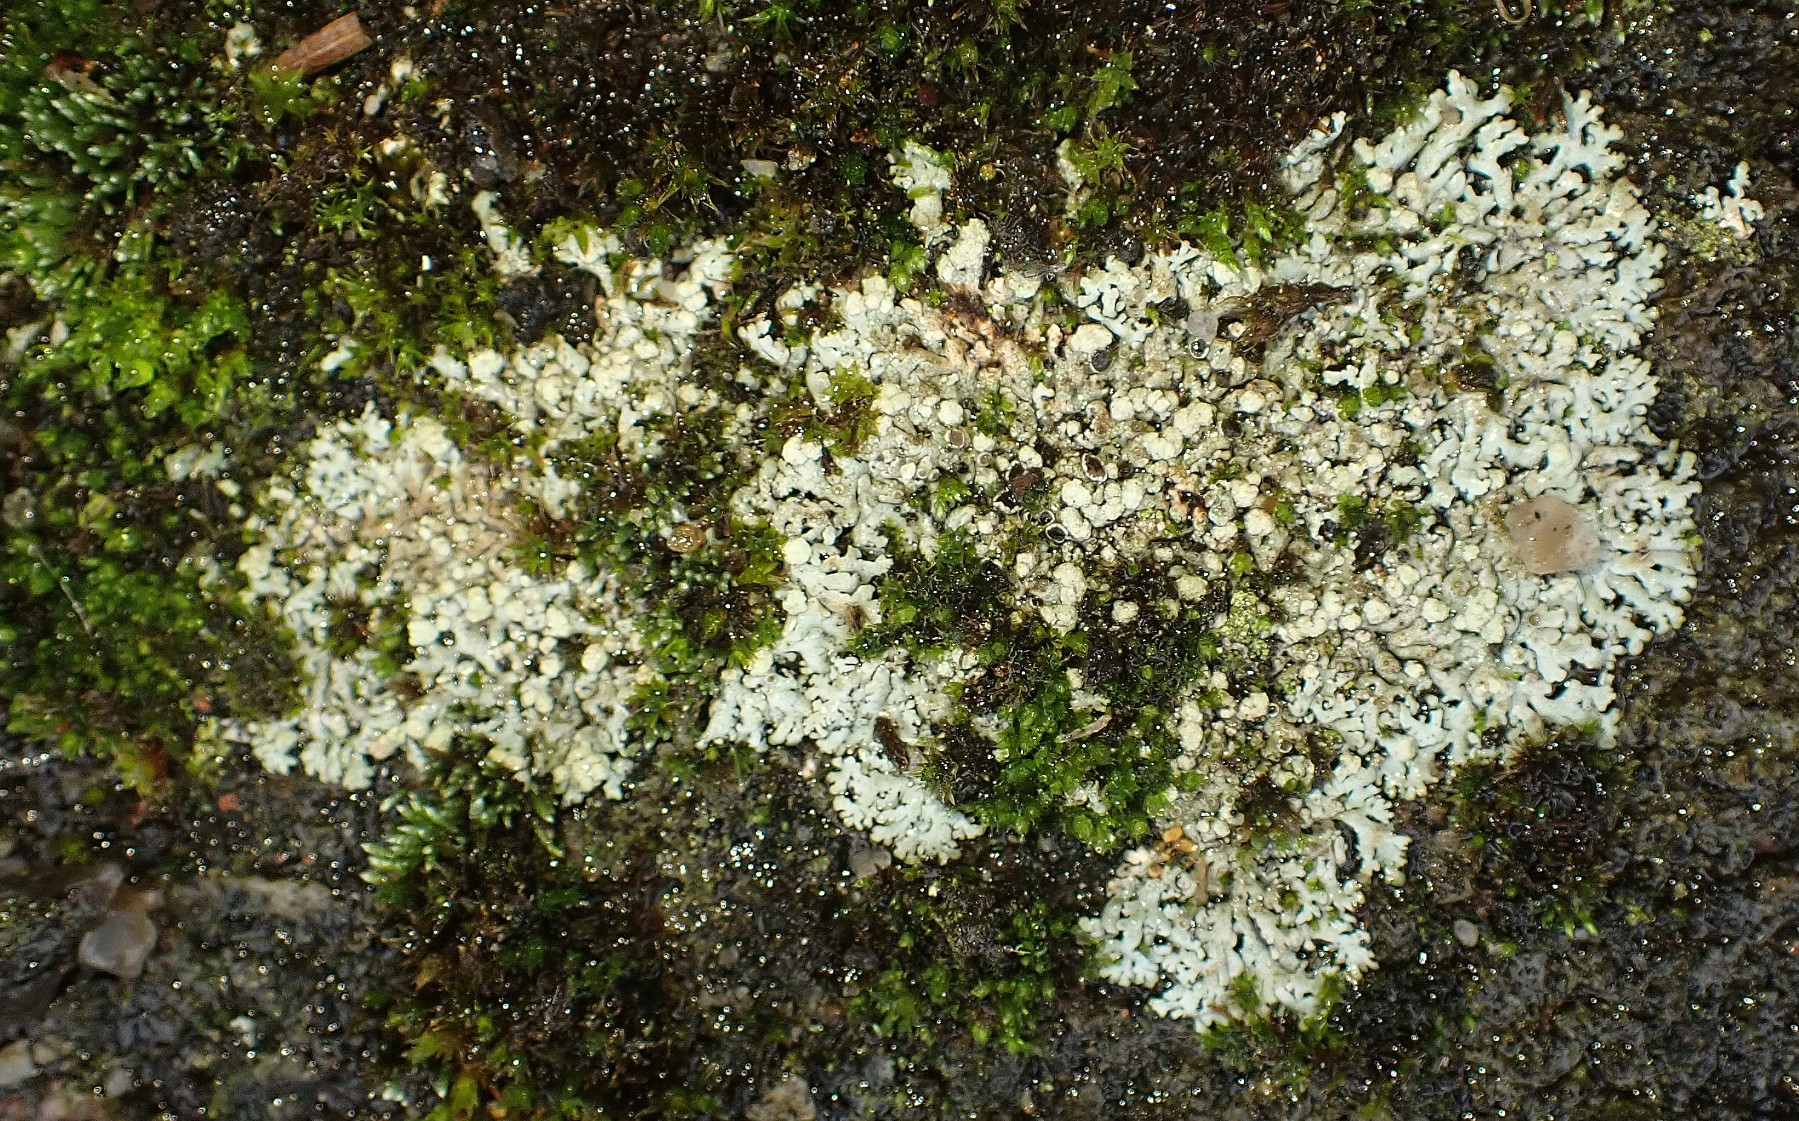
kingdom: Fungi
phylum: Ascomycota
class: Lecanoromycetes
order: Caliciales
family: Physciaceae
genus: Physcia
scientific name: Physcia caesia
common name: blågrå rosetlav
